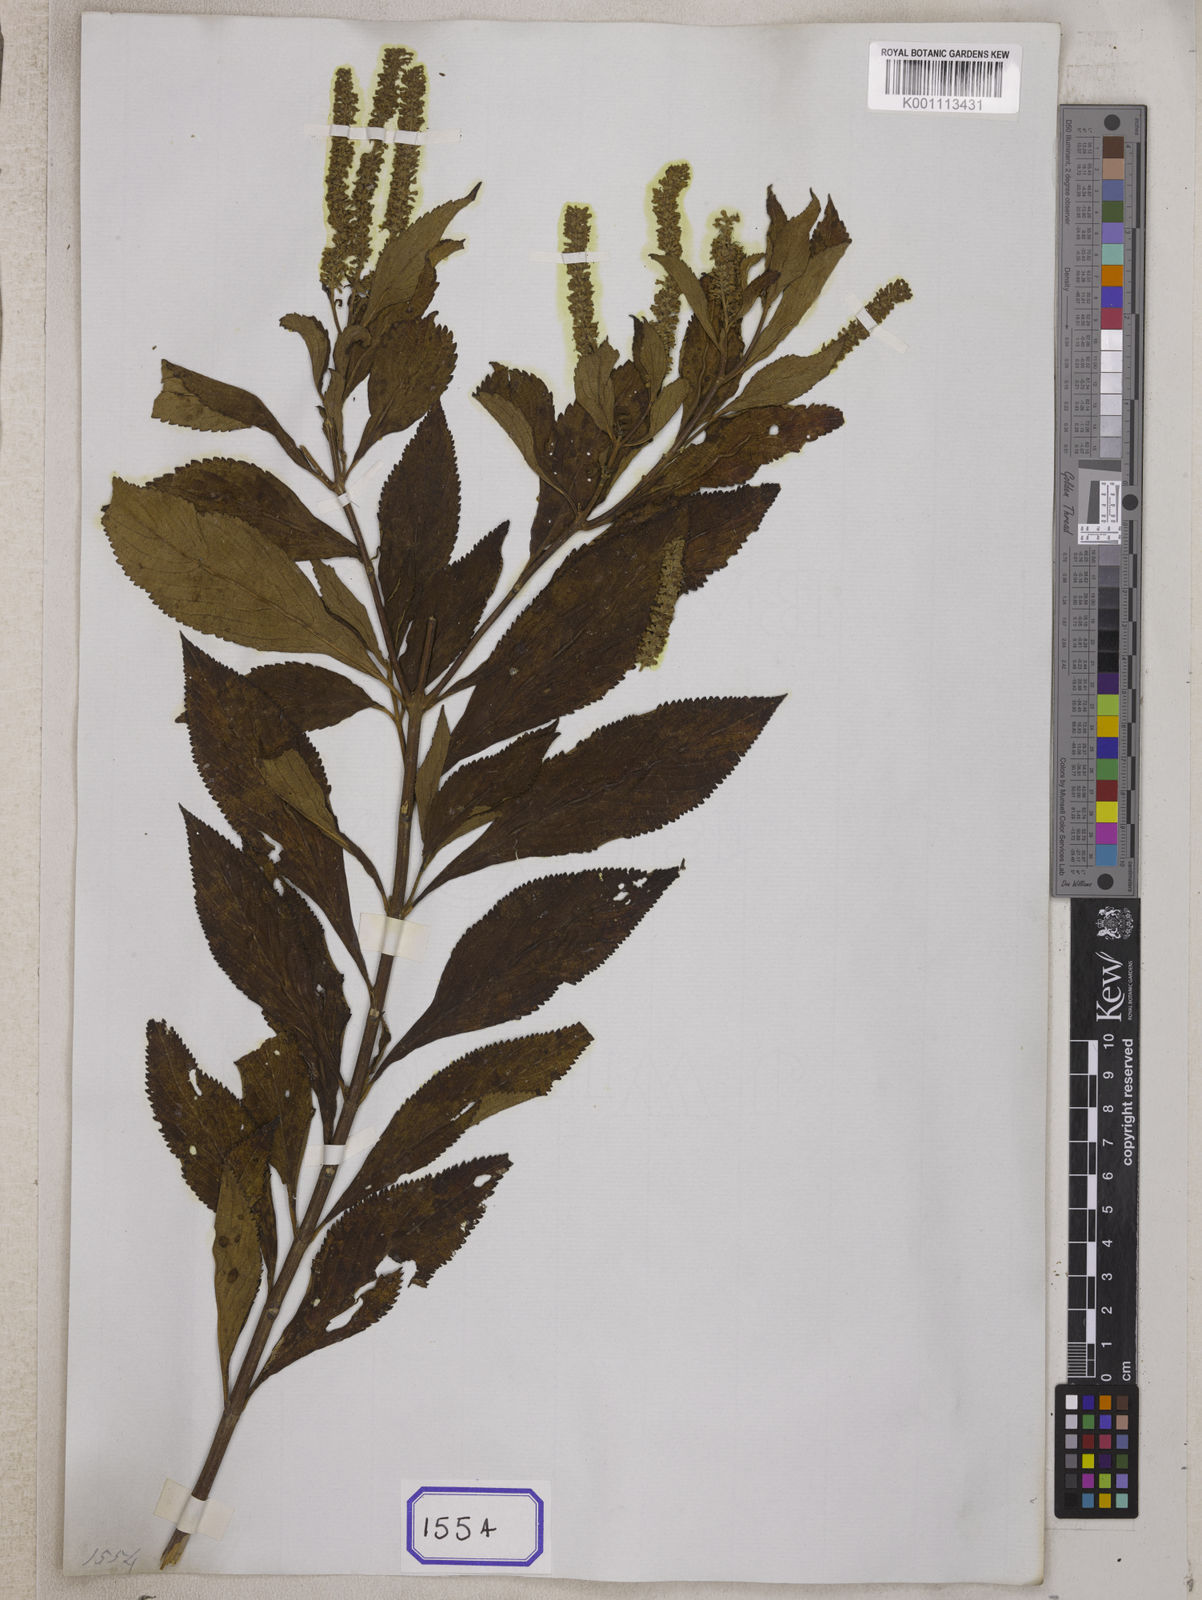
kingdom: Plantae
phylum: Tracheophyta
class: Magnoliopsida
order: Lamiales
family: Lamiaceae
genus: Elsholtzia
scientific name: Elsholtzia fruticosa
